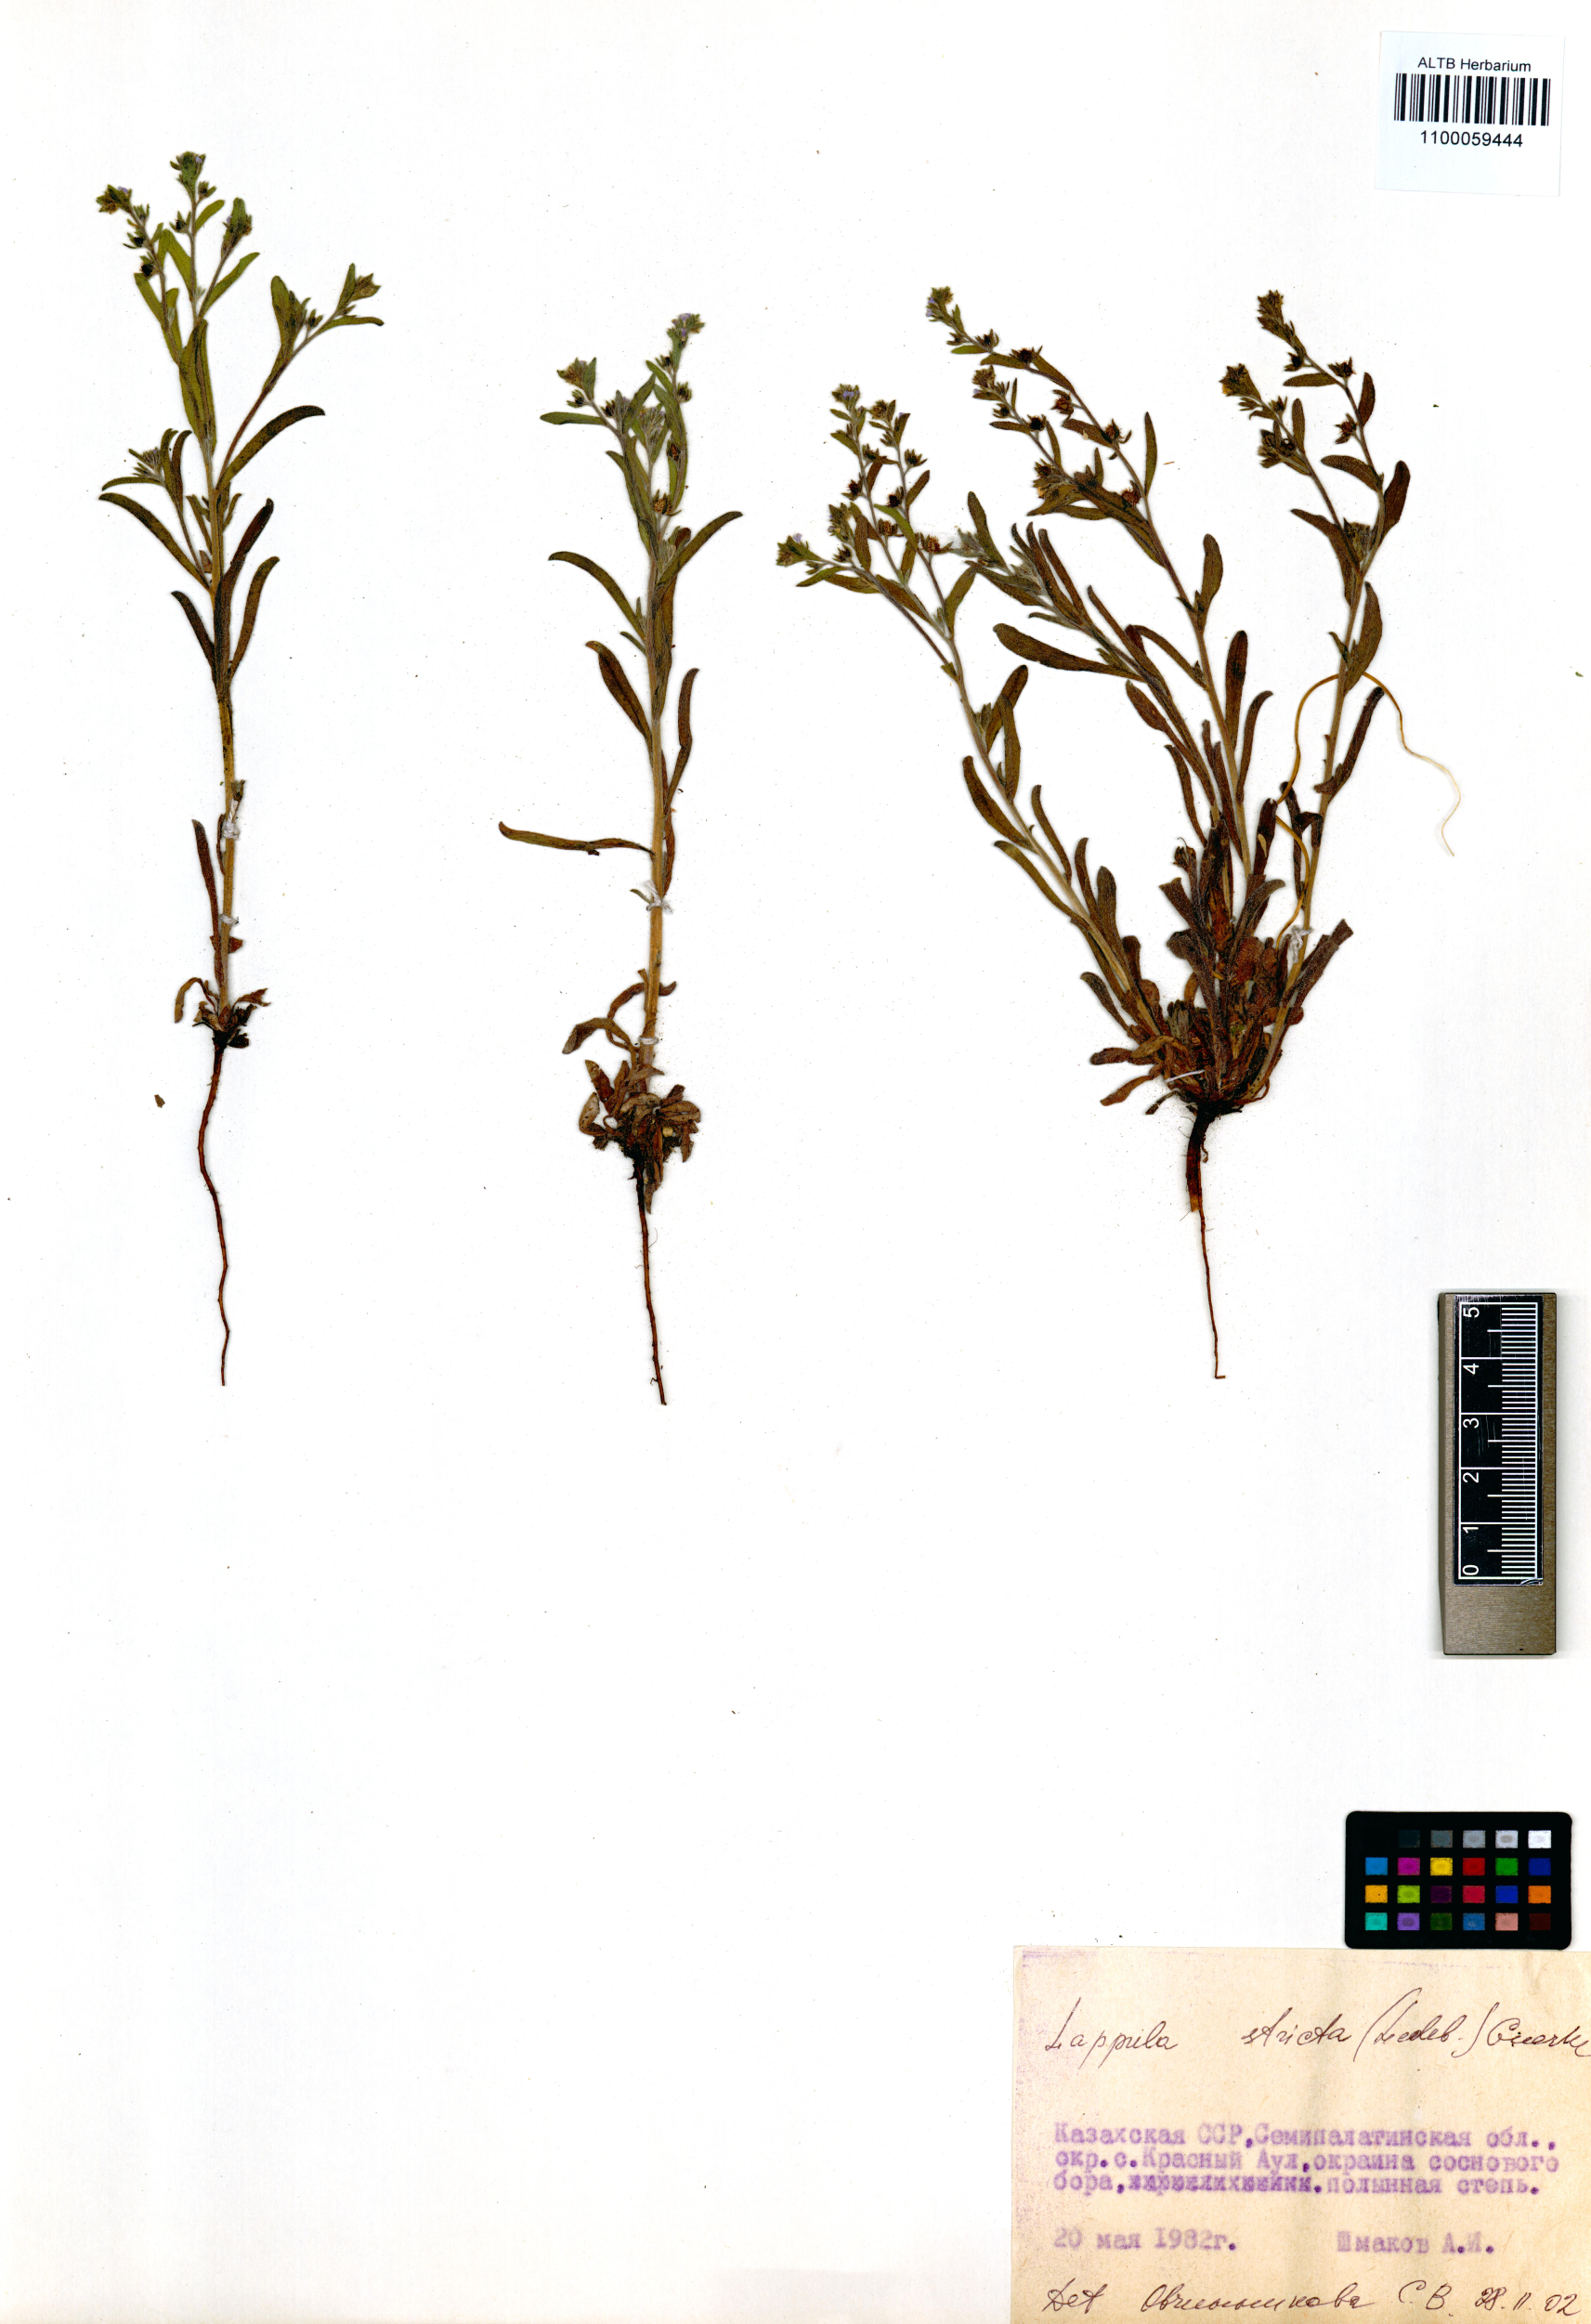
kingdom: Plantae
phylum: Tracheophyta
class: Magnoliopsida
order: Boraginales
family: Boraginaceae
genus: Lappula
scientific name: Lappula stricta
